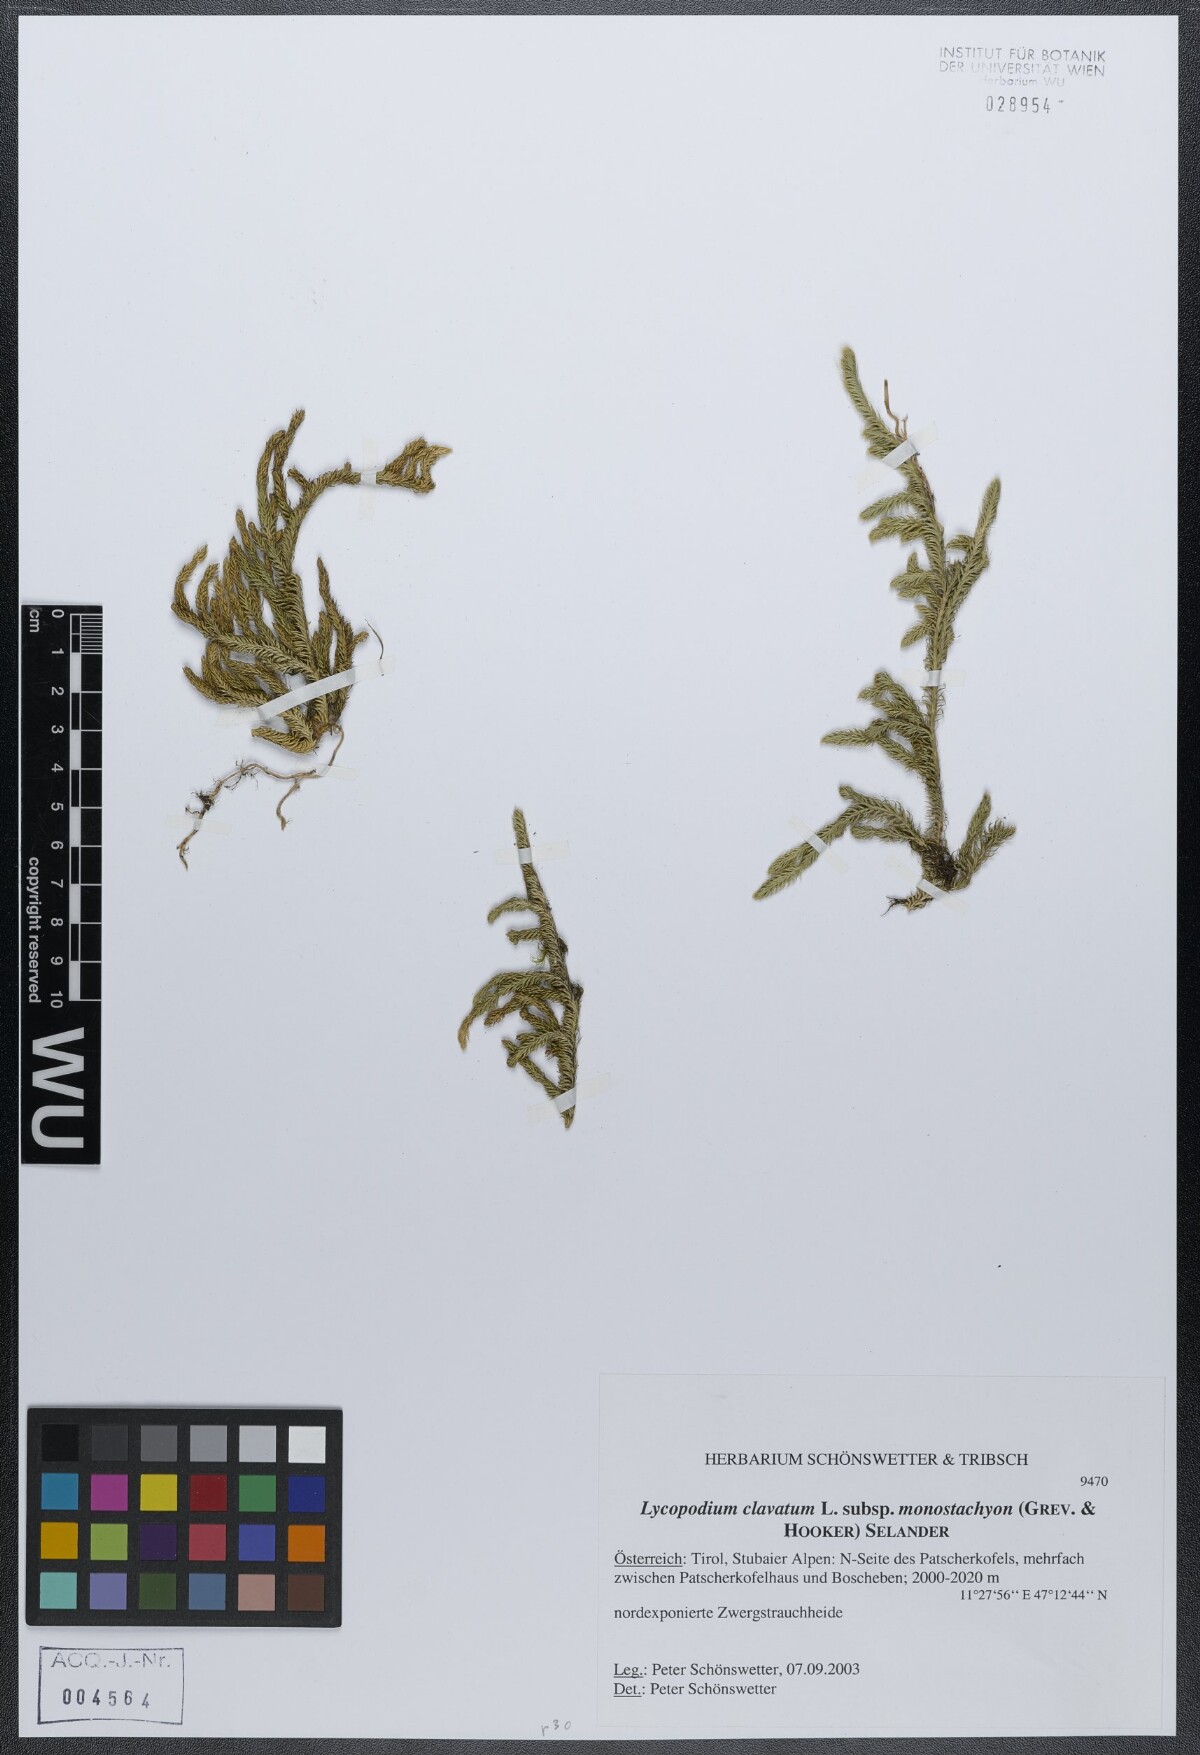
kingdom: Plantae
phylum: Tracheophyta
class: Lycopodiopsida
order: Lycopodiales
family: Lycopodiaceae
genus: Lycopodium
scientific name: Lycopodium lagopus
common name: One-cone clubmoss
